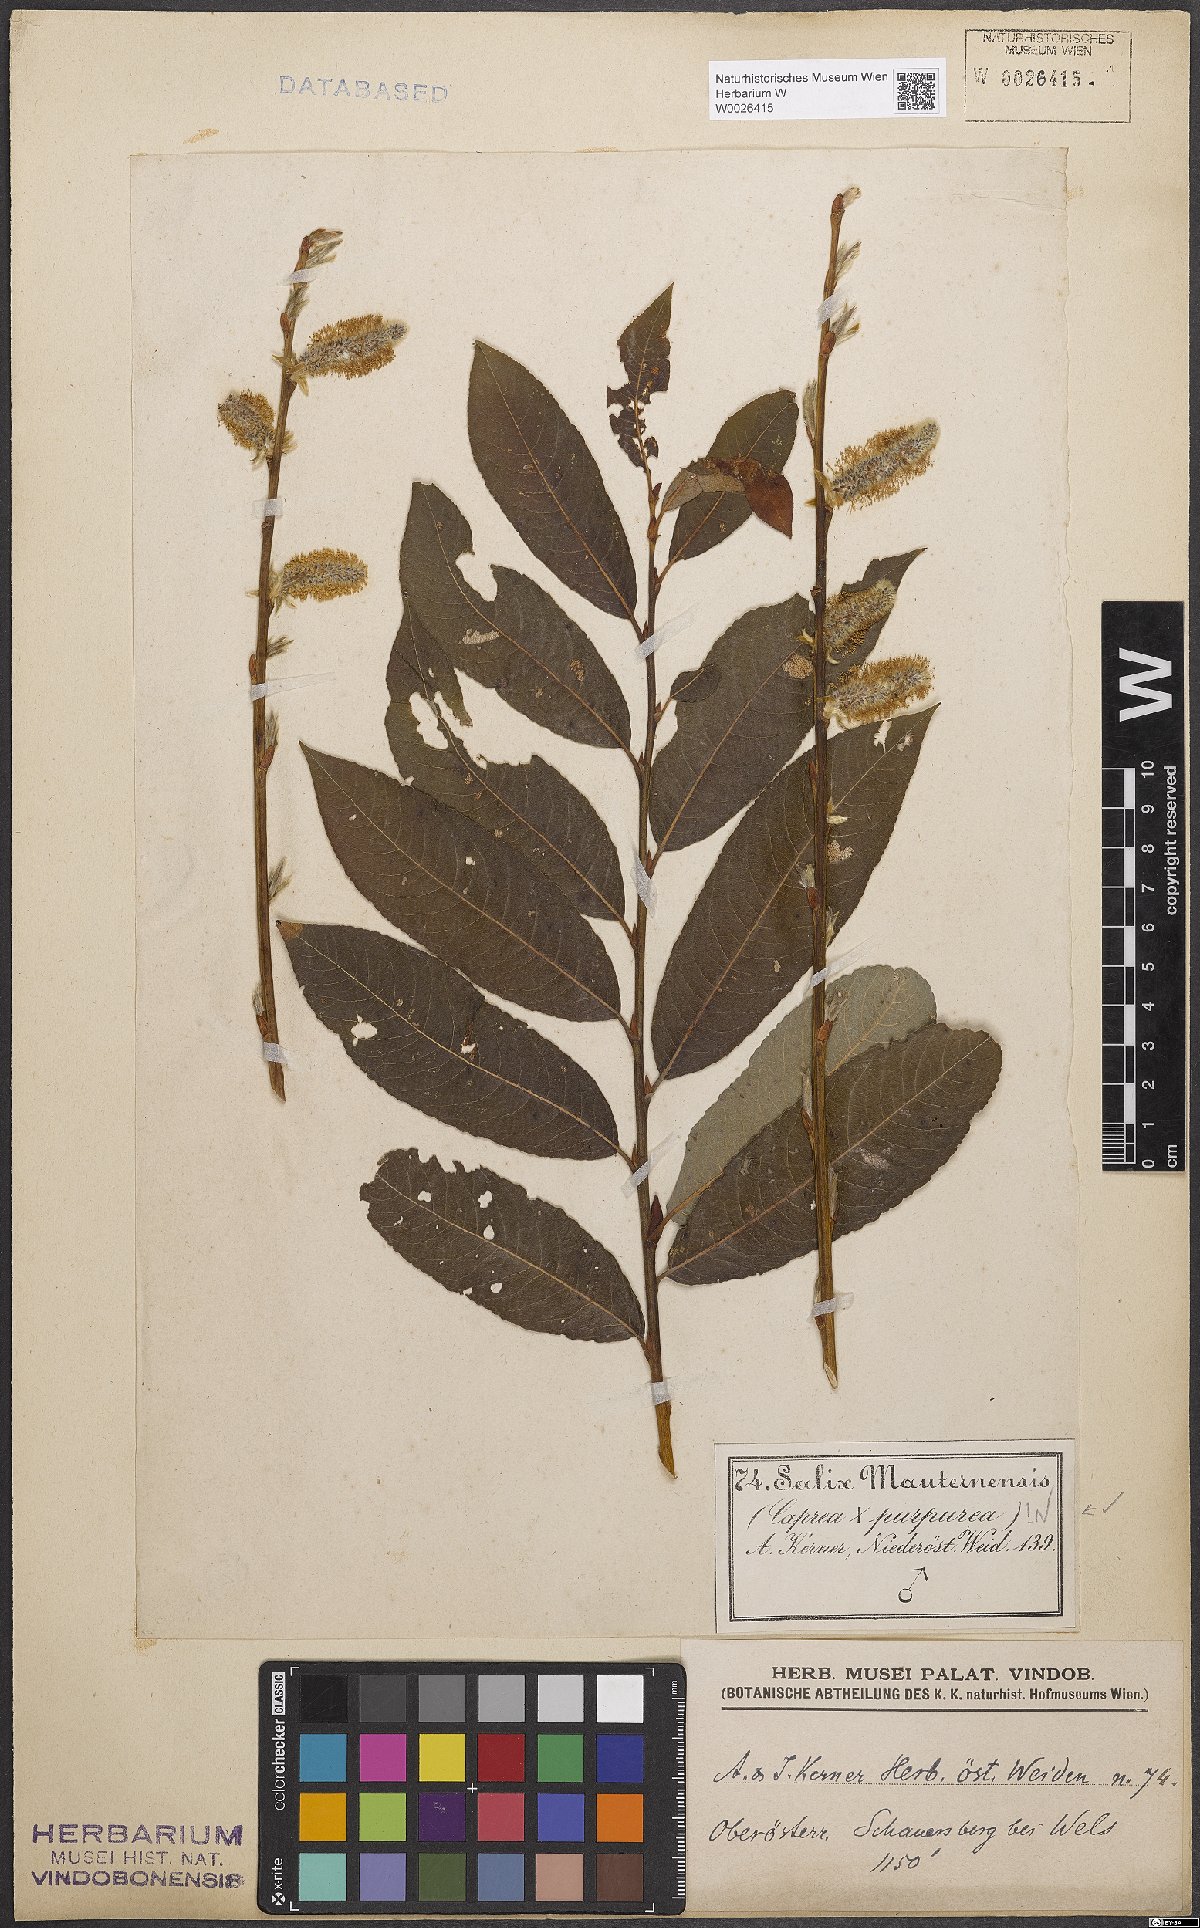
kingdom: Plantae
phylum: Tracheophyta
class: Magnoliopsida
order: Malpighiales
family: Salicaceae
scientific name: Salicaceae
